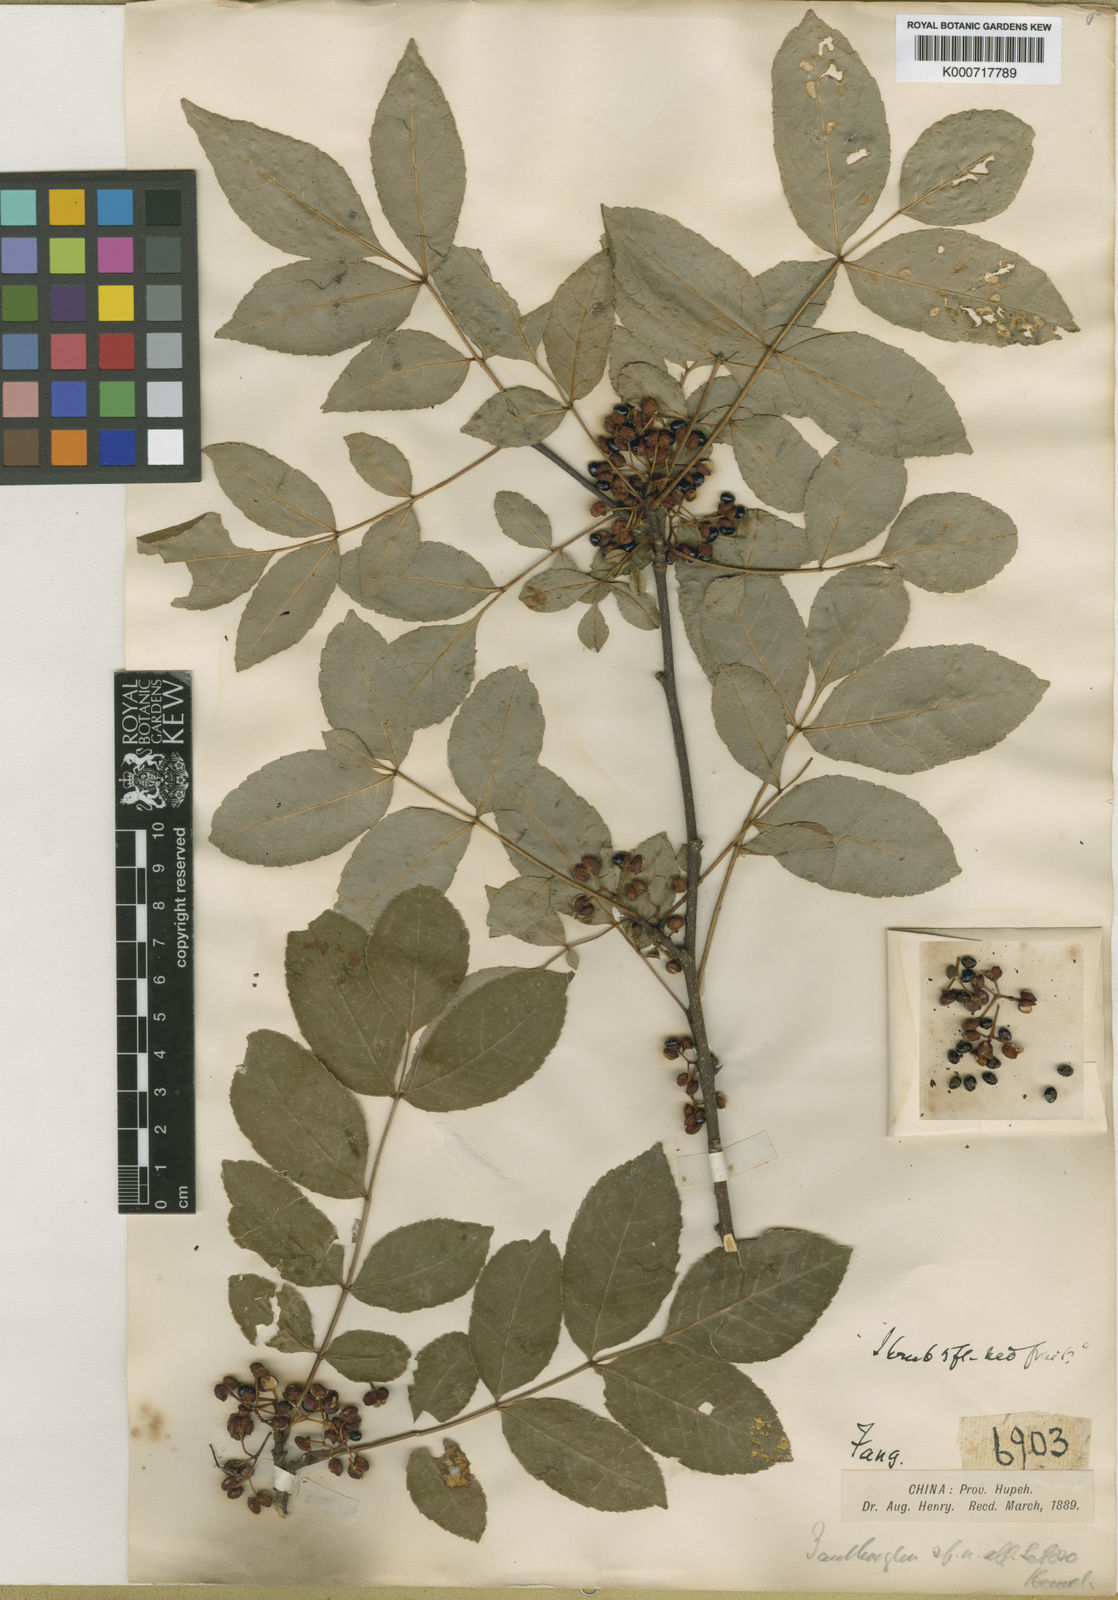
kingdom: Plantae
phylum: Tracheophyta
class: Magnoliopsida
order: Sapindales
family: Rutaceae
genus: Zanthoxylum
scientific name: Zanthoxylum simulans
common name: Chinese-pepper
